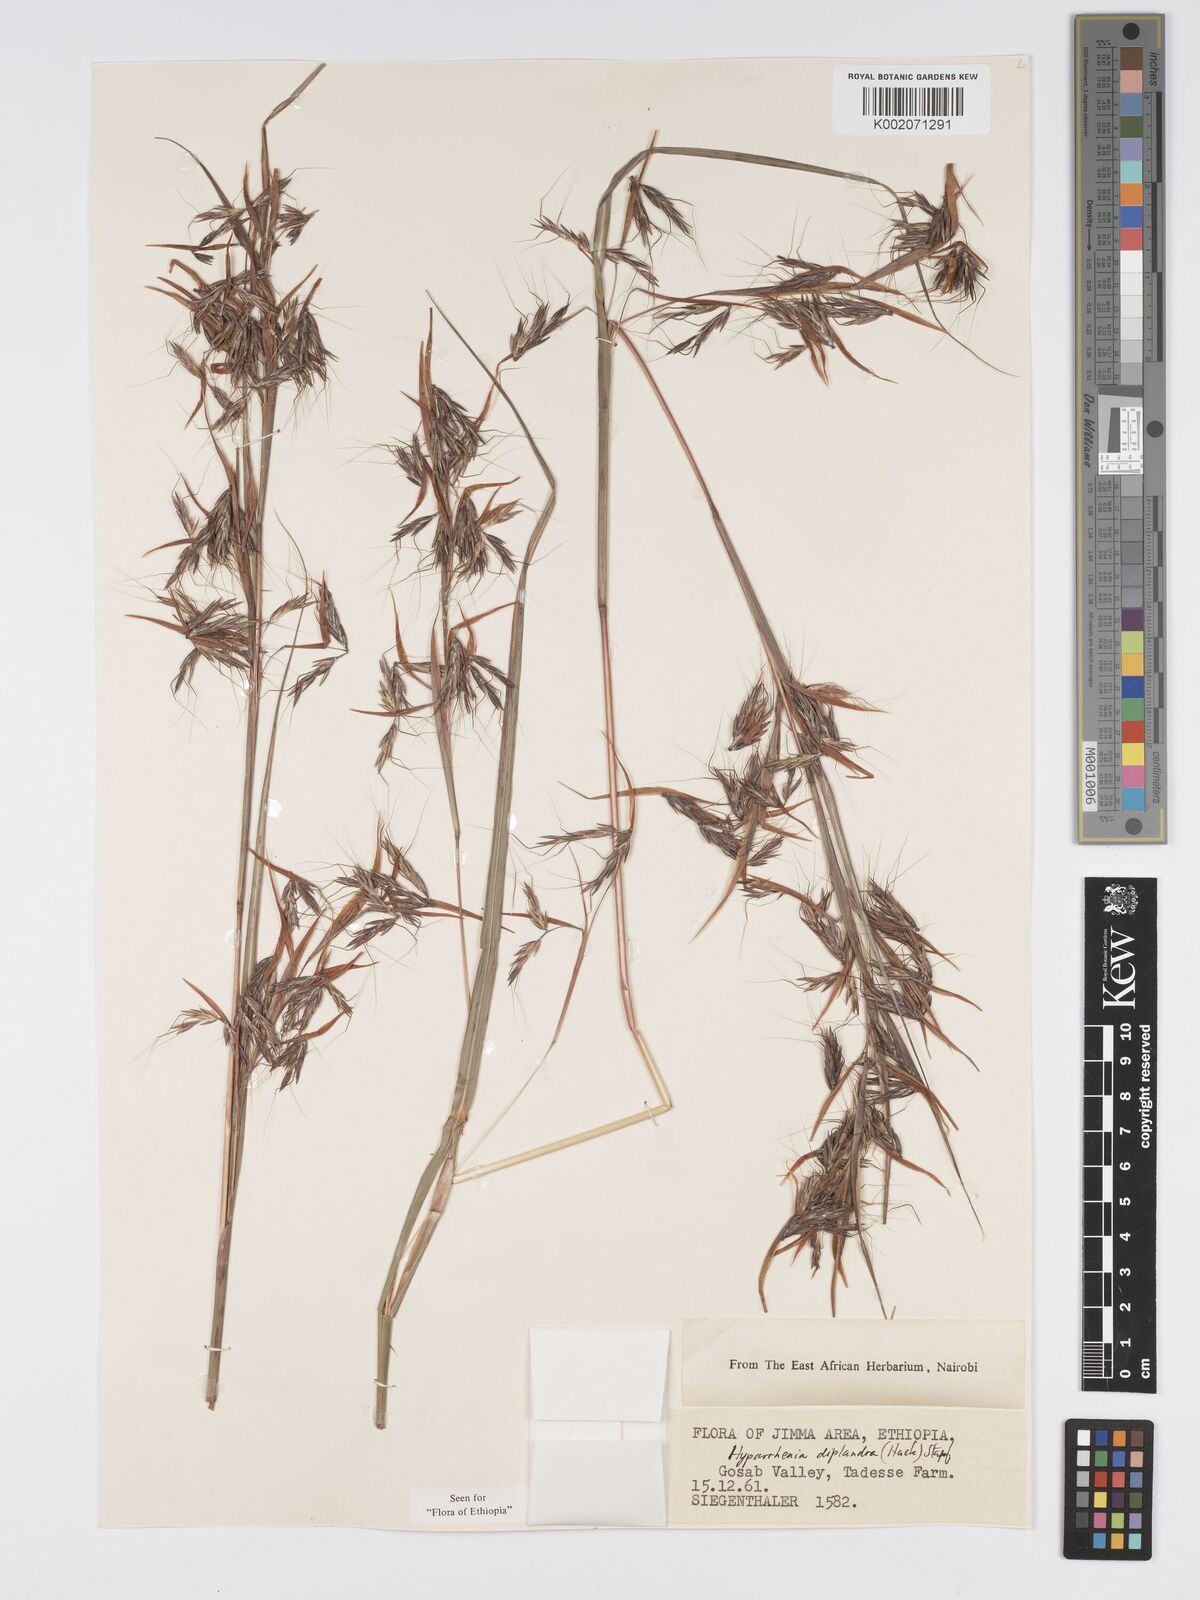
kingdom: Plantae
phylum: Tracheophyta
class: Liliopsida
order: Poales
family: Poaceae
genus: Hyparrhenia
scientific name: Hyparrhenia diplandra
